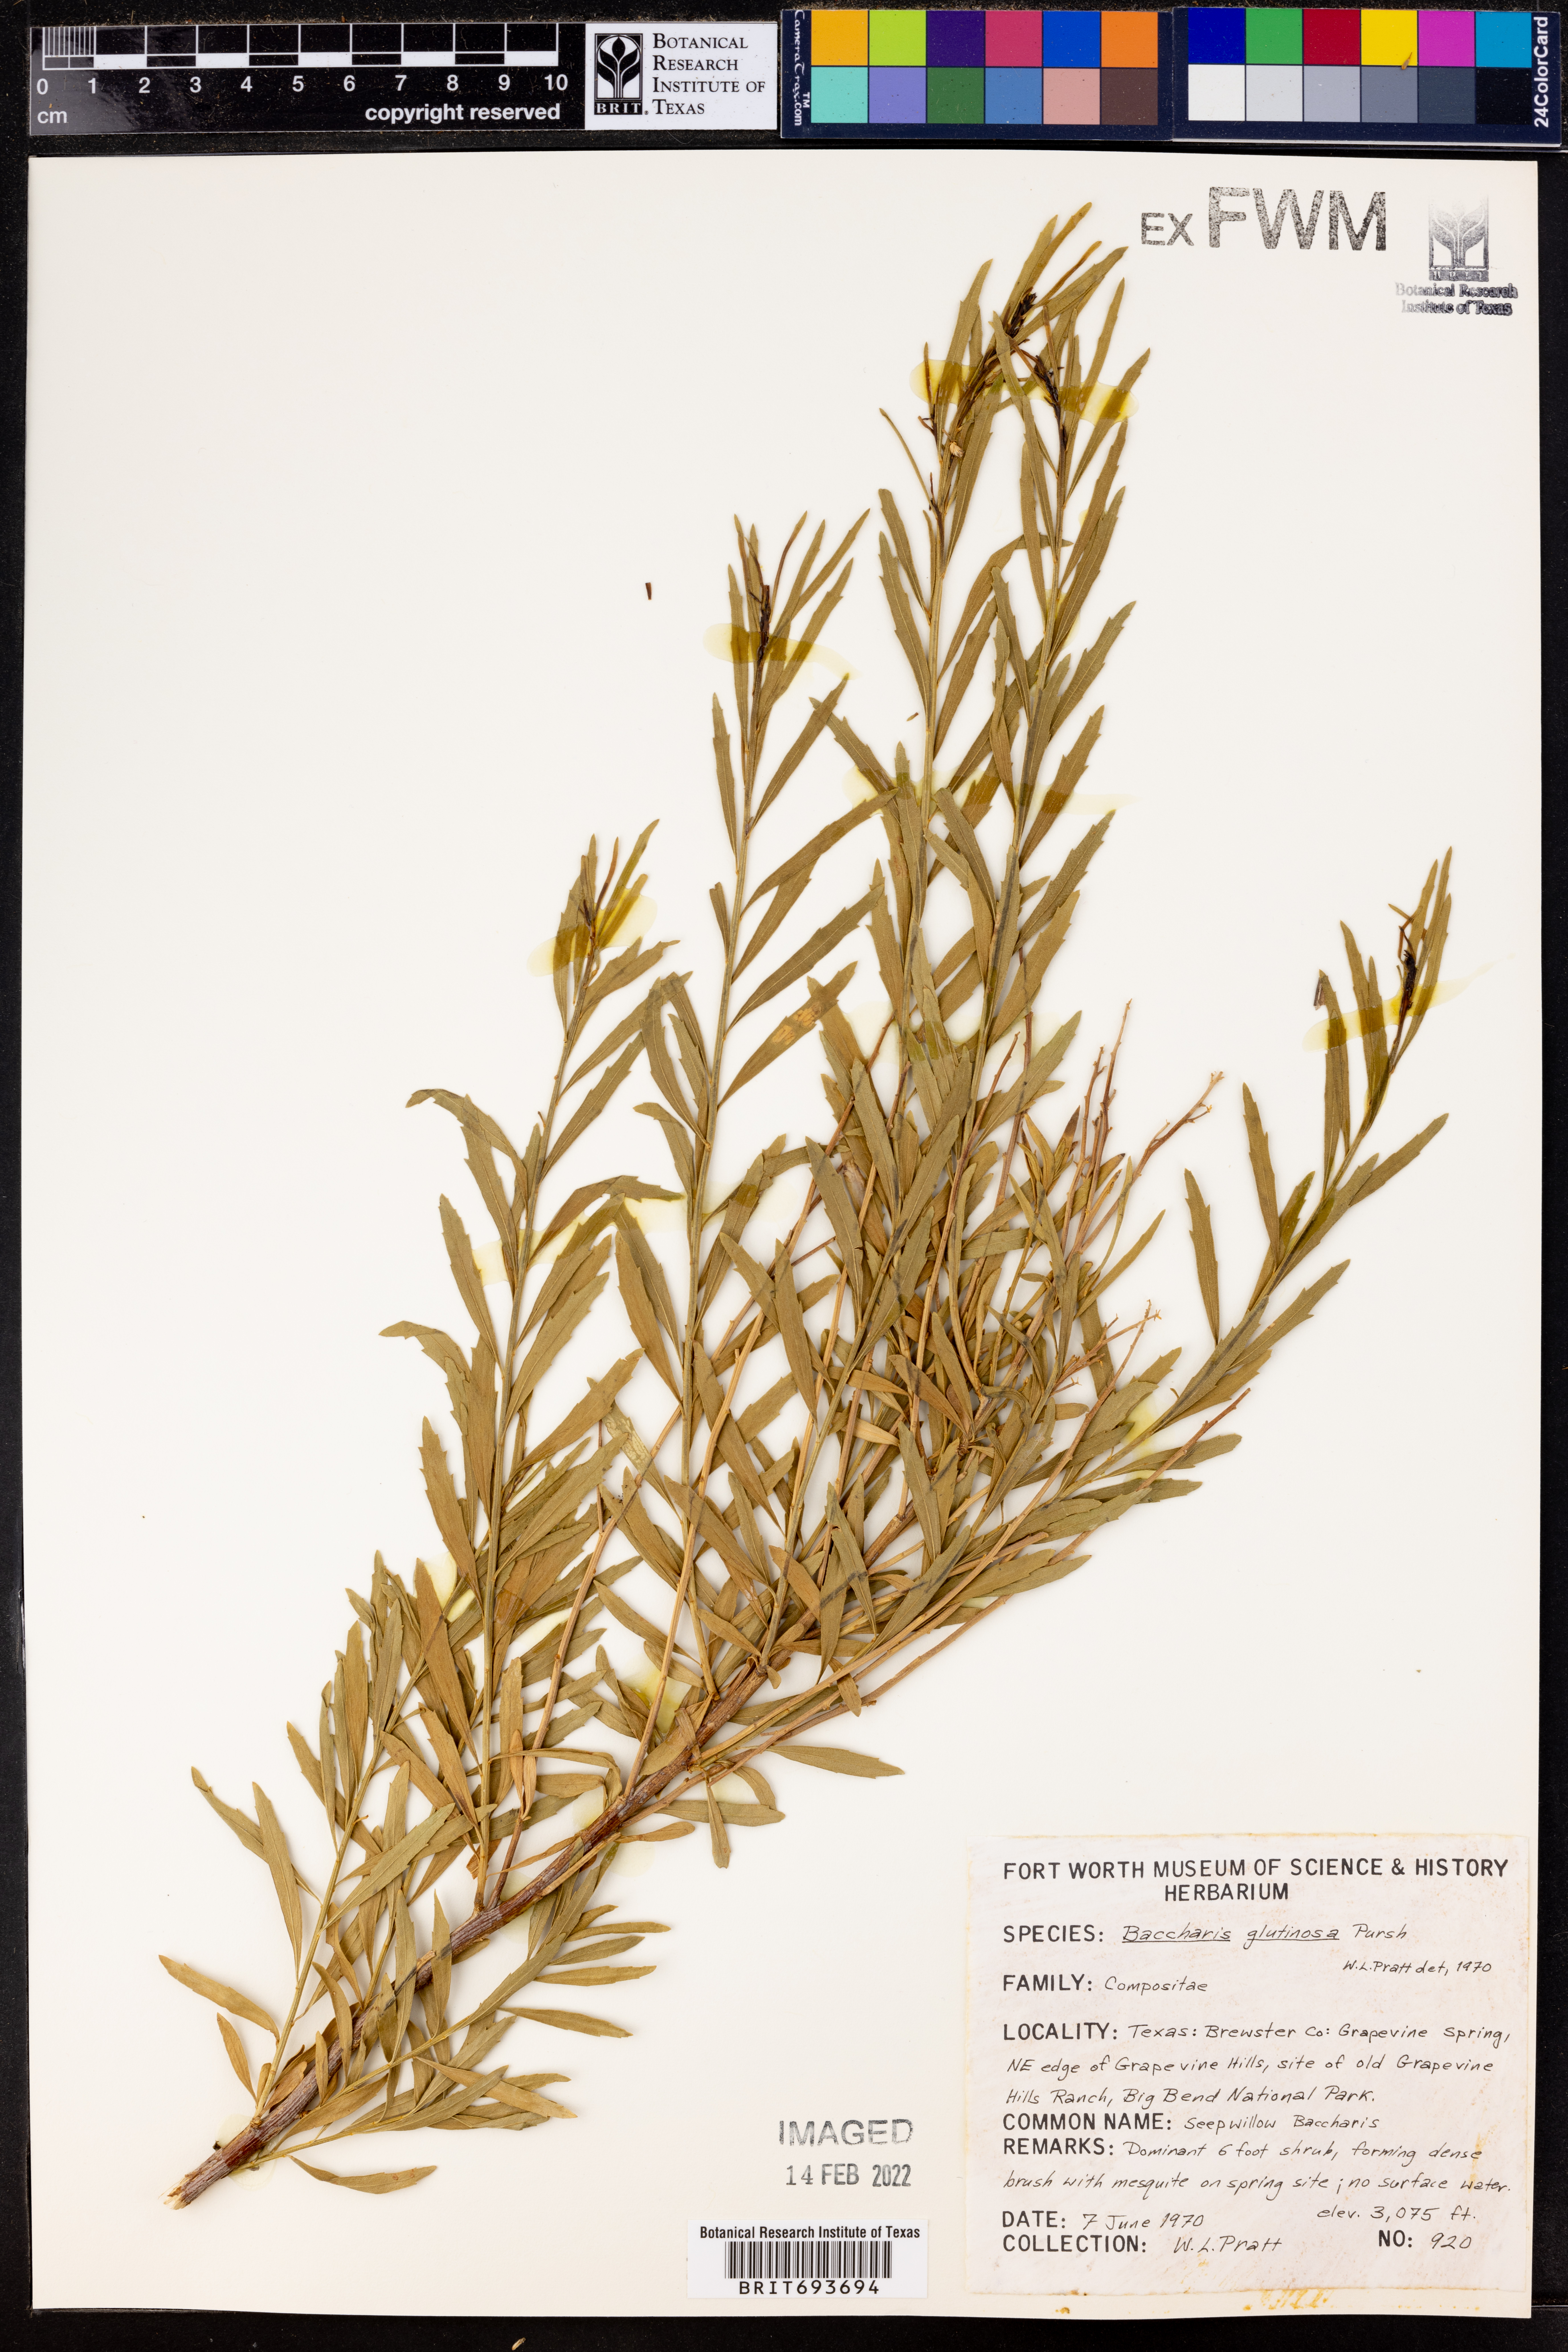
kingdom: Plantae
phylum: Tracheophyta
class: Magnoliopsida
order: Asterales
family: Asteraceae
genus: Baccharis
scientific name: Baccharis glutinosa
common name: Saltmarsh baccharis
